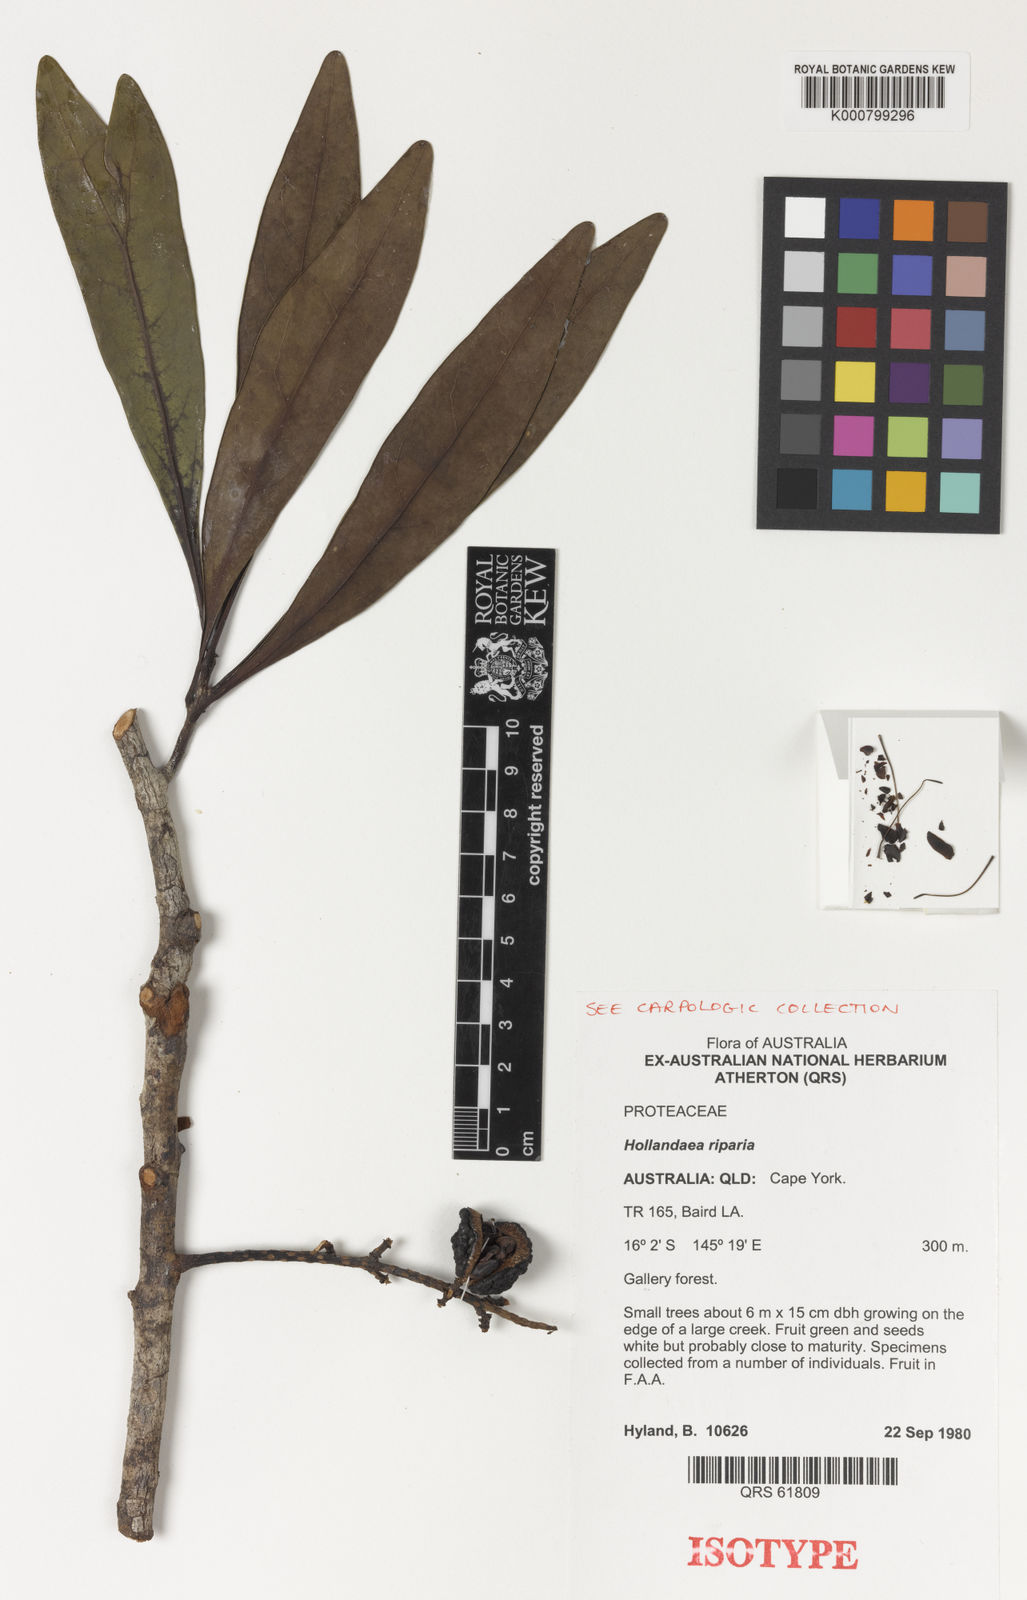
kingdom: Plantae
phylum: Tracheophyta
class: Magnoliopsida
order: Proteales
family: Proteaceae
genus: Hollandaea
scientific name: Hollandaea riparia
